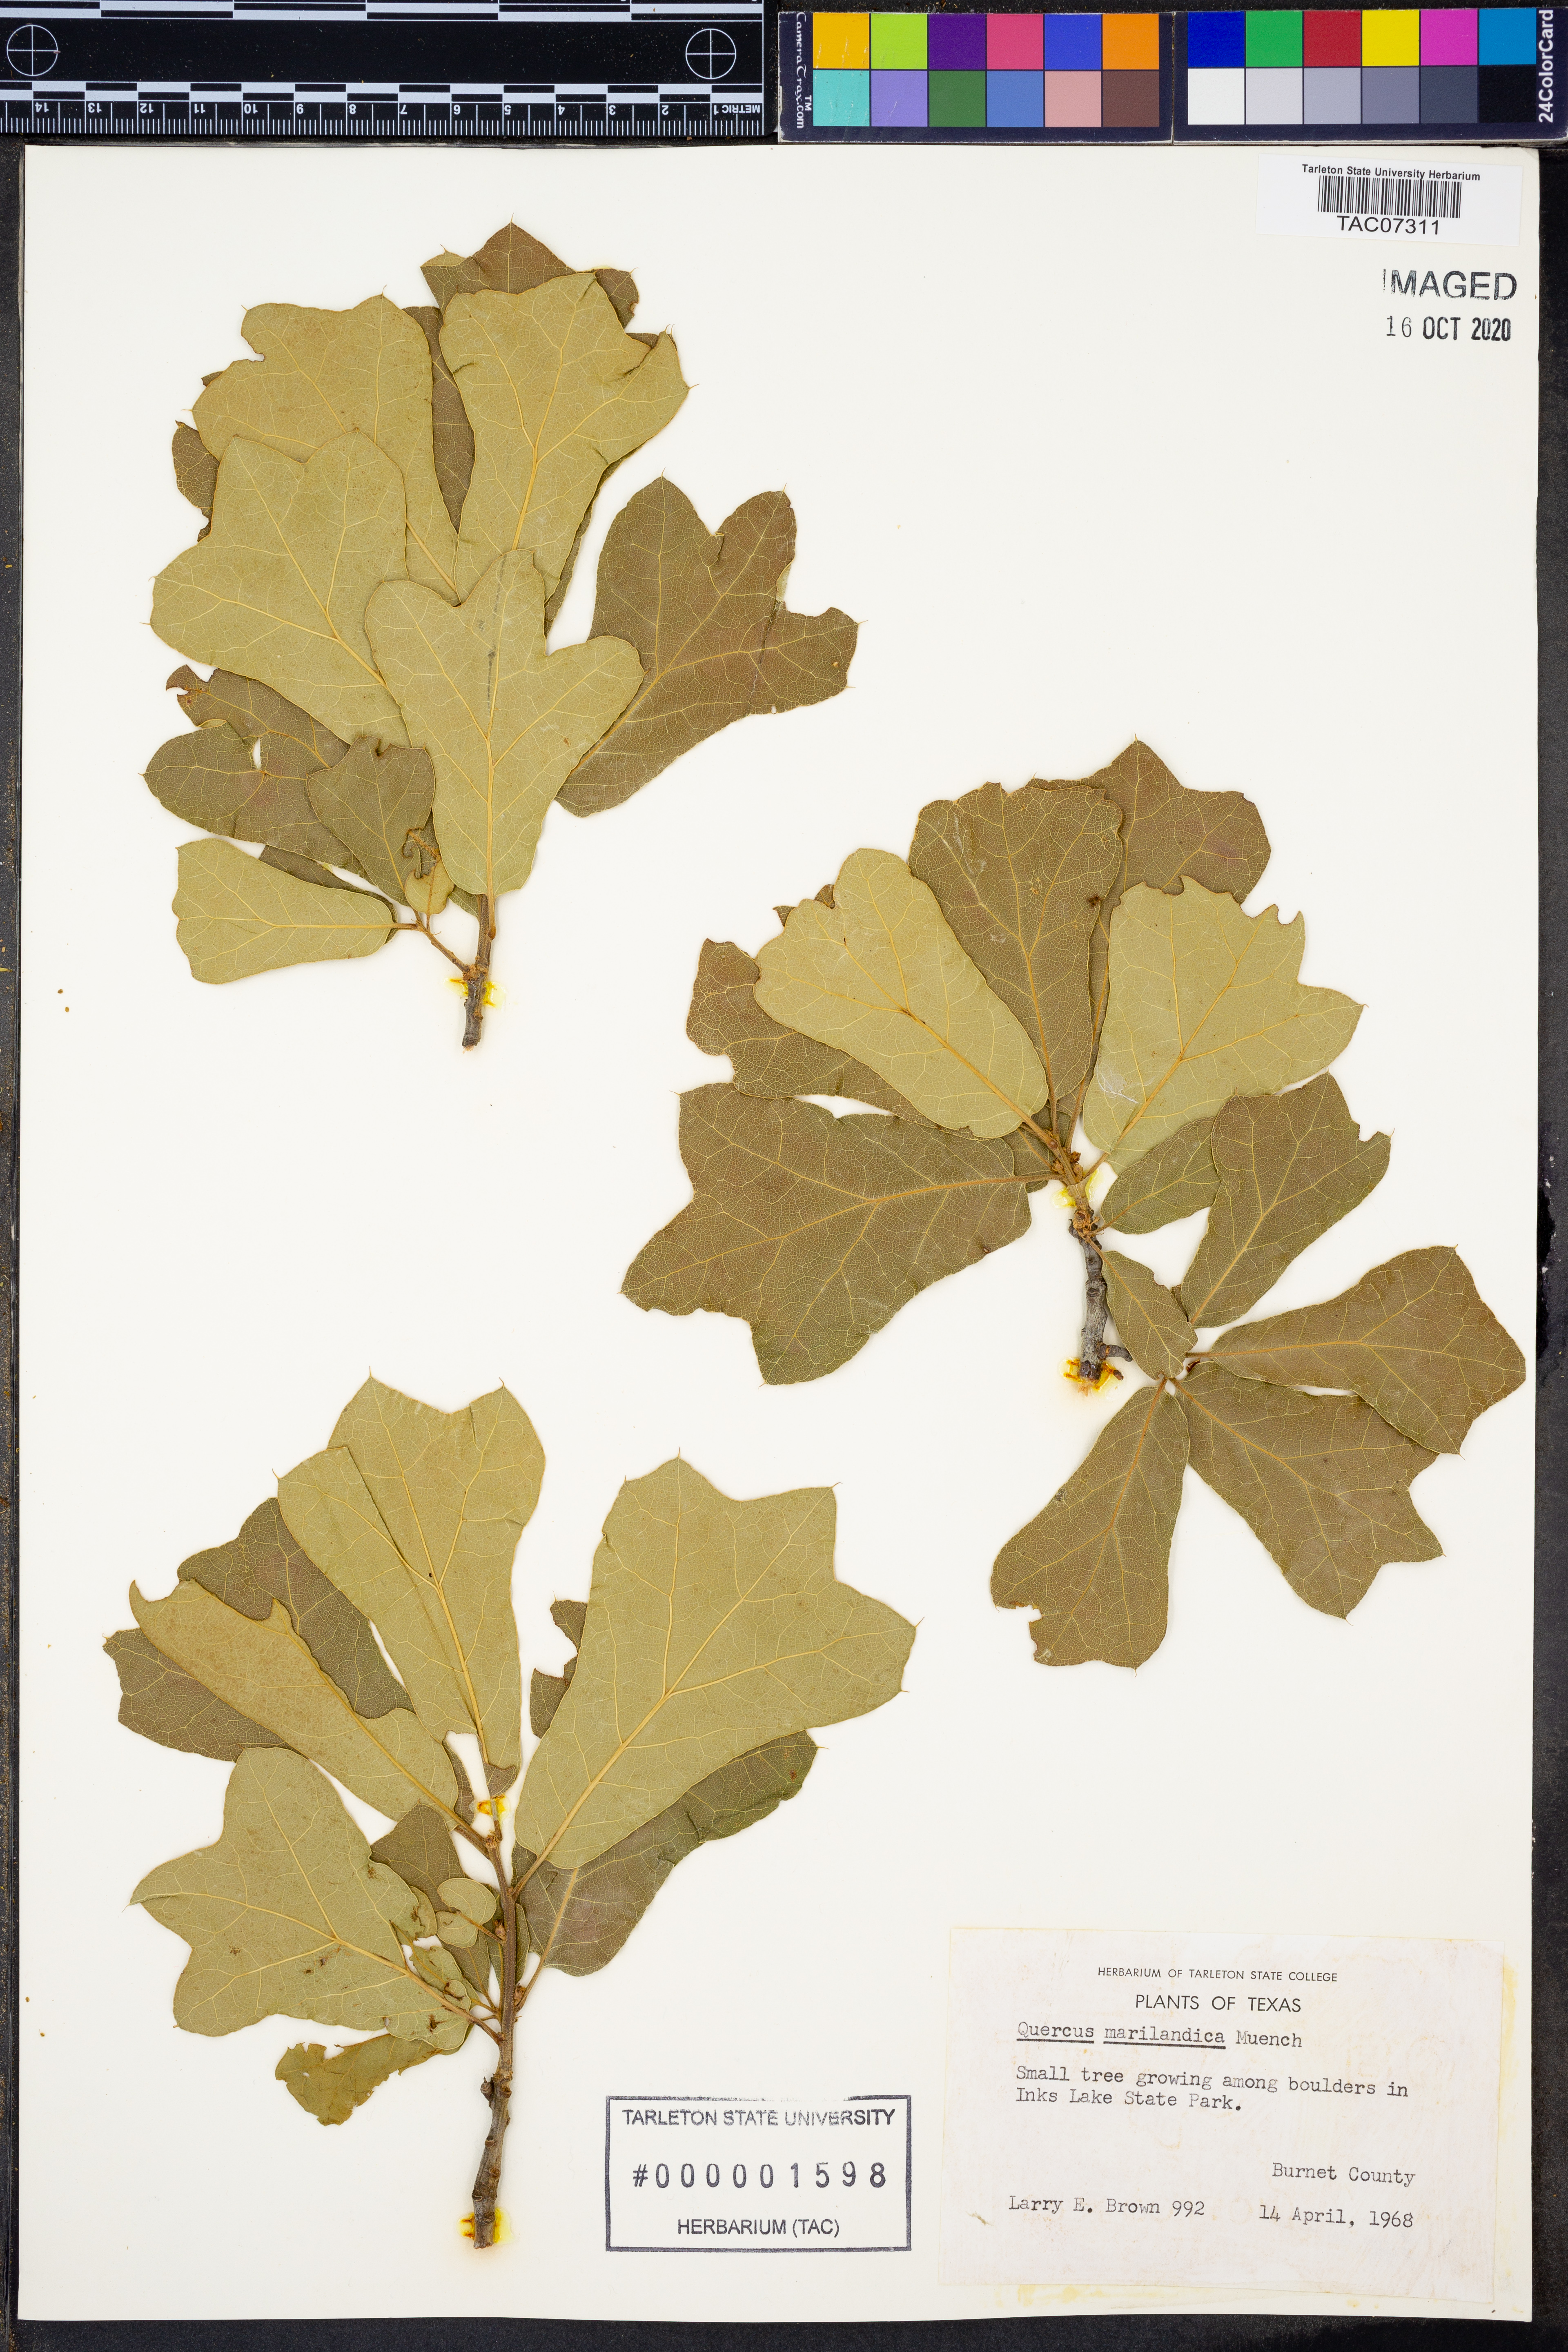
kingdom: Plantae
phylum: Tracheophyta
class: Magnoliopsida
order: Fagales
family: Fagaceae
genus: Quercus
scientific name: Quercus marilandica
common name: Blackjack oak
